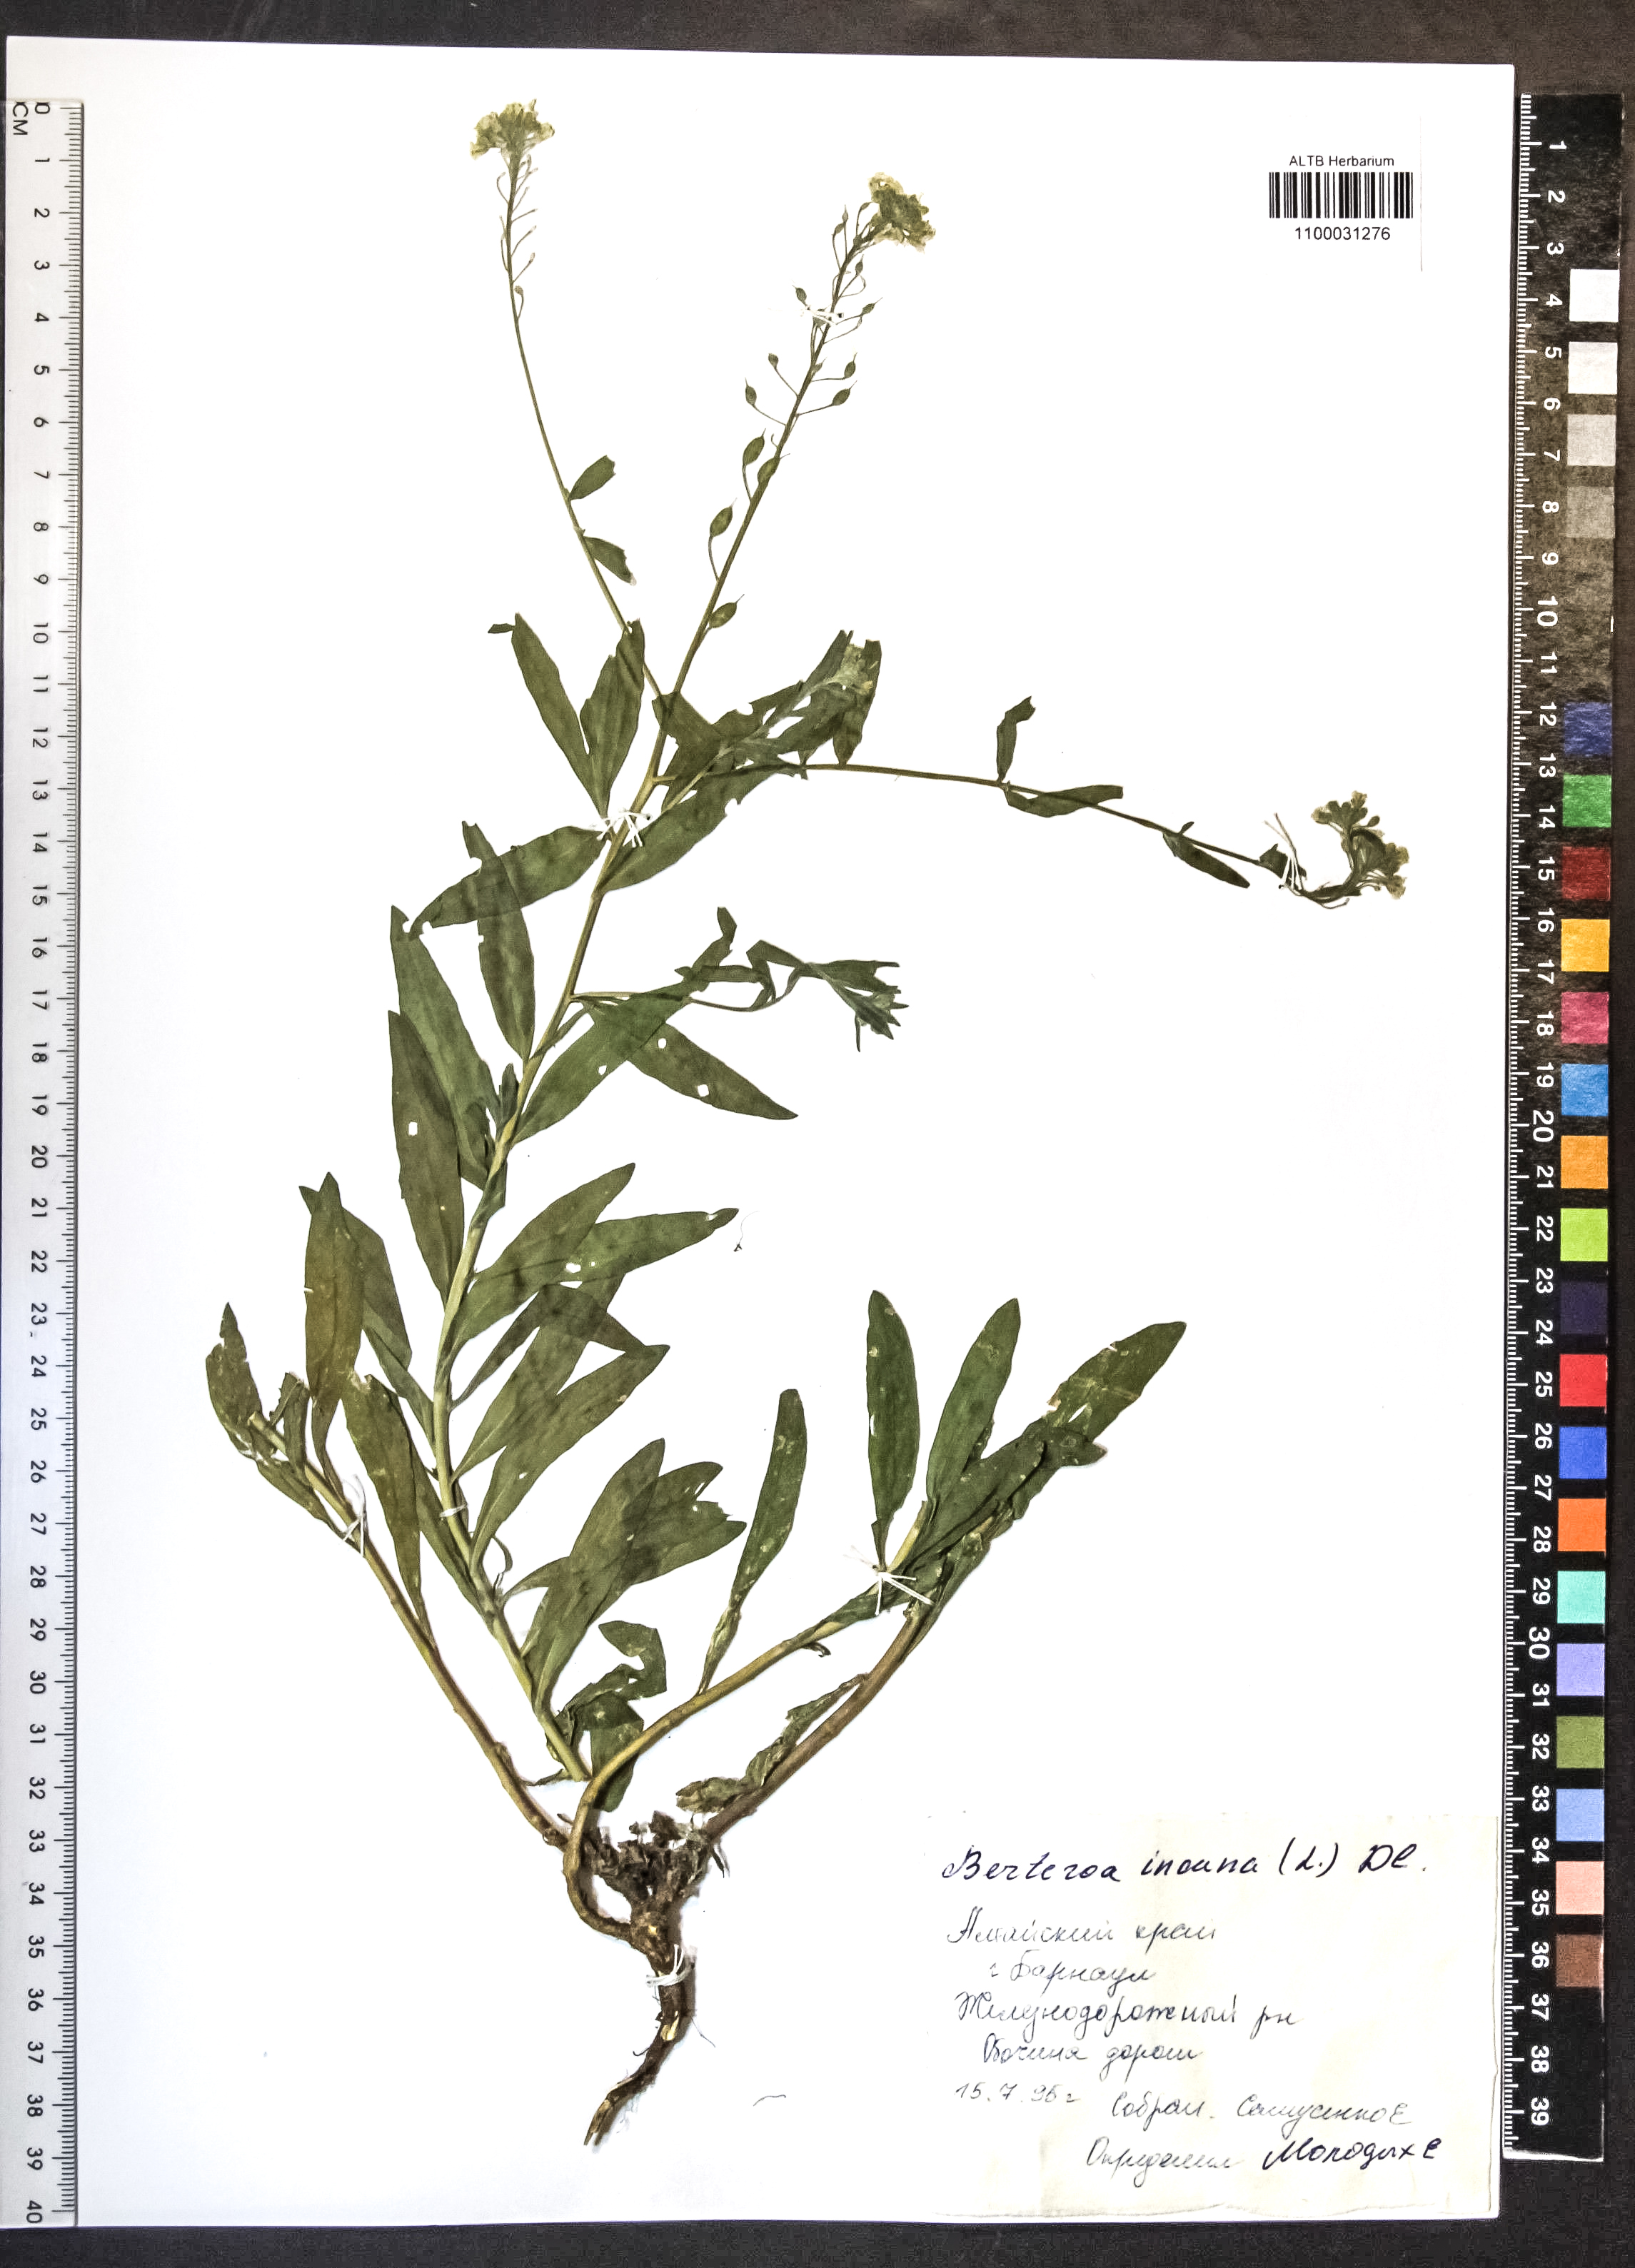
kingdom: Plantae
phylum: Tracheophyta
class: Magnoliopsida
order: Brassicales
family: Brassicaceae
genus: Berteroa
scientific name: Berteroa incana
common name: Hoary alison
